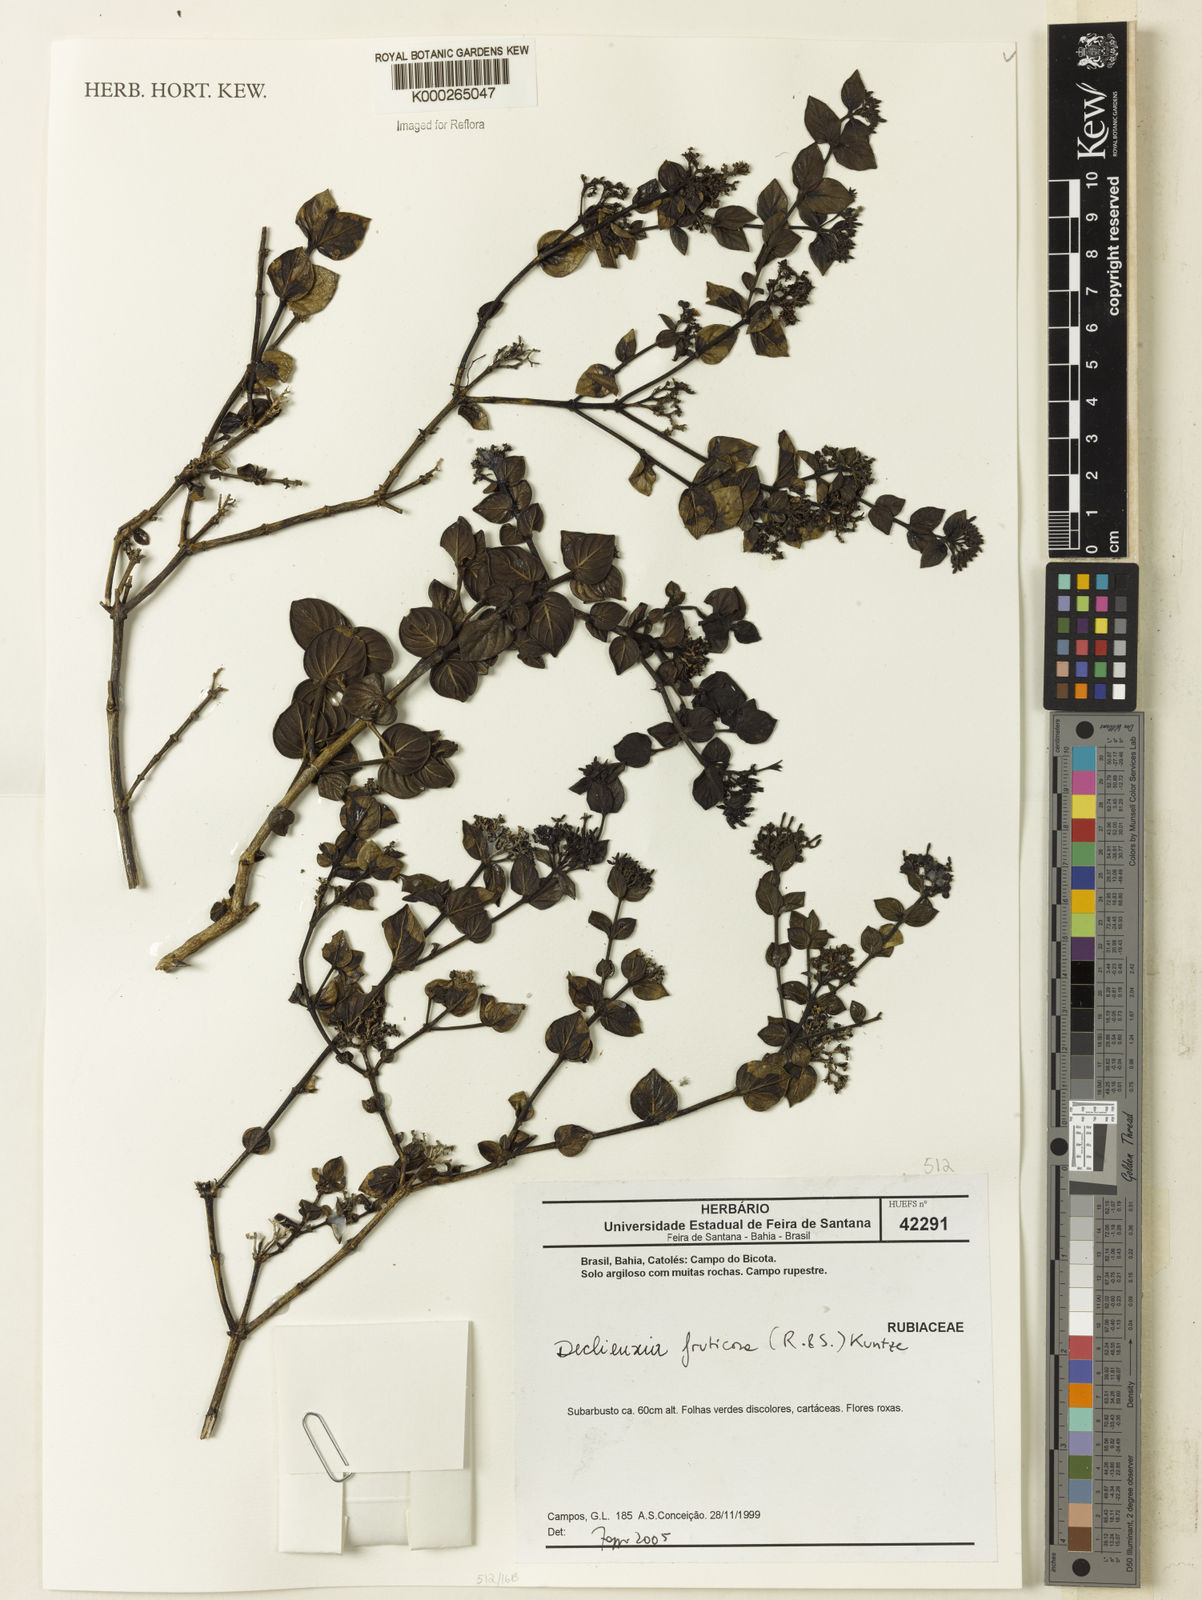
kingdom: Plantae
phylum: Tracheophyta
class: Magnoliopsida
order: Gentianales
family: Rubiaceae
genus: Declieuxia
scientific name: Declieuxia fruticosa
